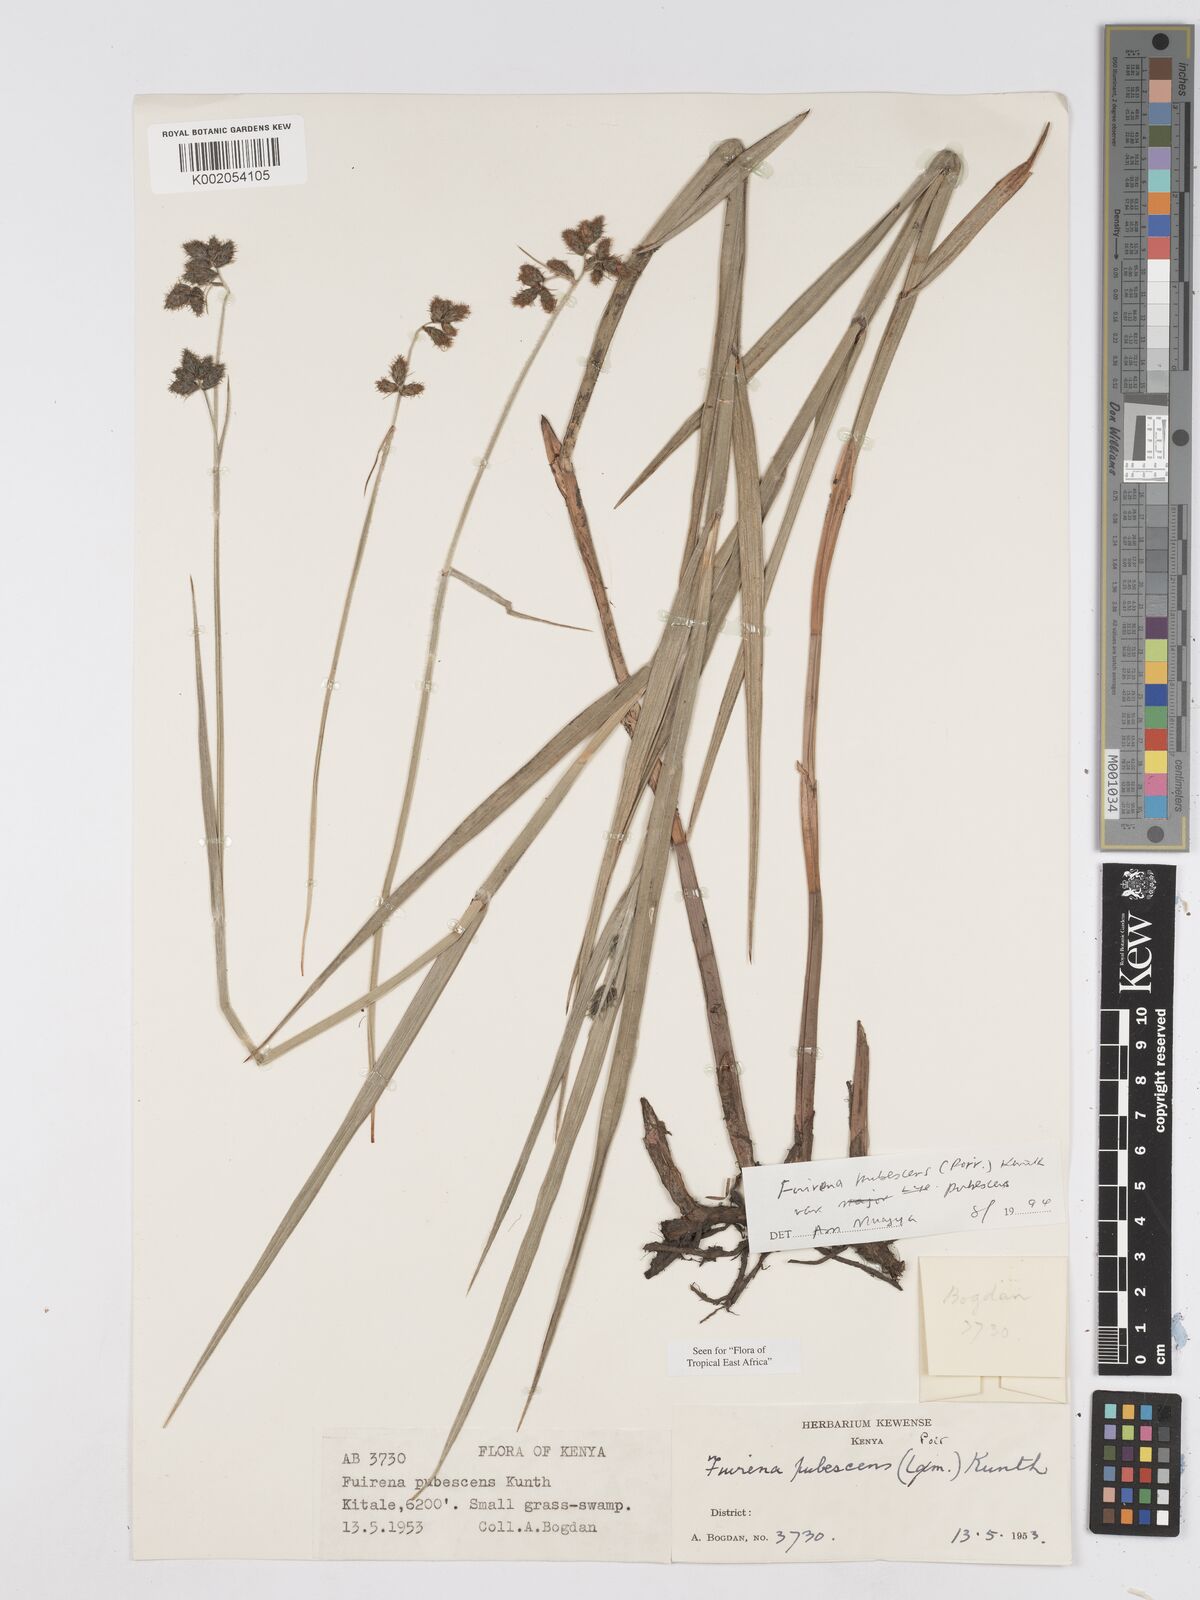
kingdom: Plantae
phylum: Tracheophyta
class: Liliopsida
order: Poales
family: Cyperaceae
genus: Fuirena
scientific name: Fuirena pubescens
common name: Hairy sedge
